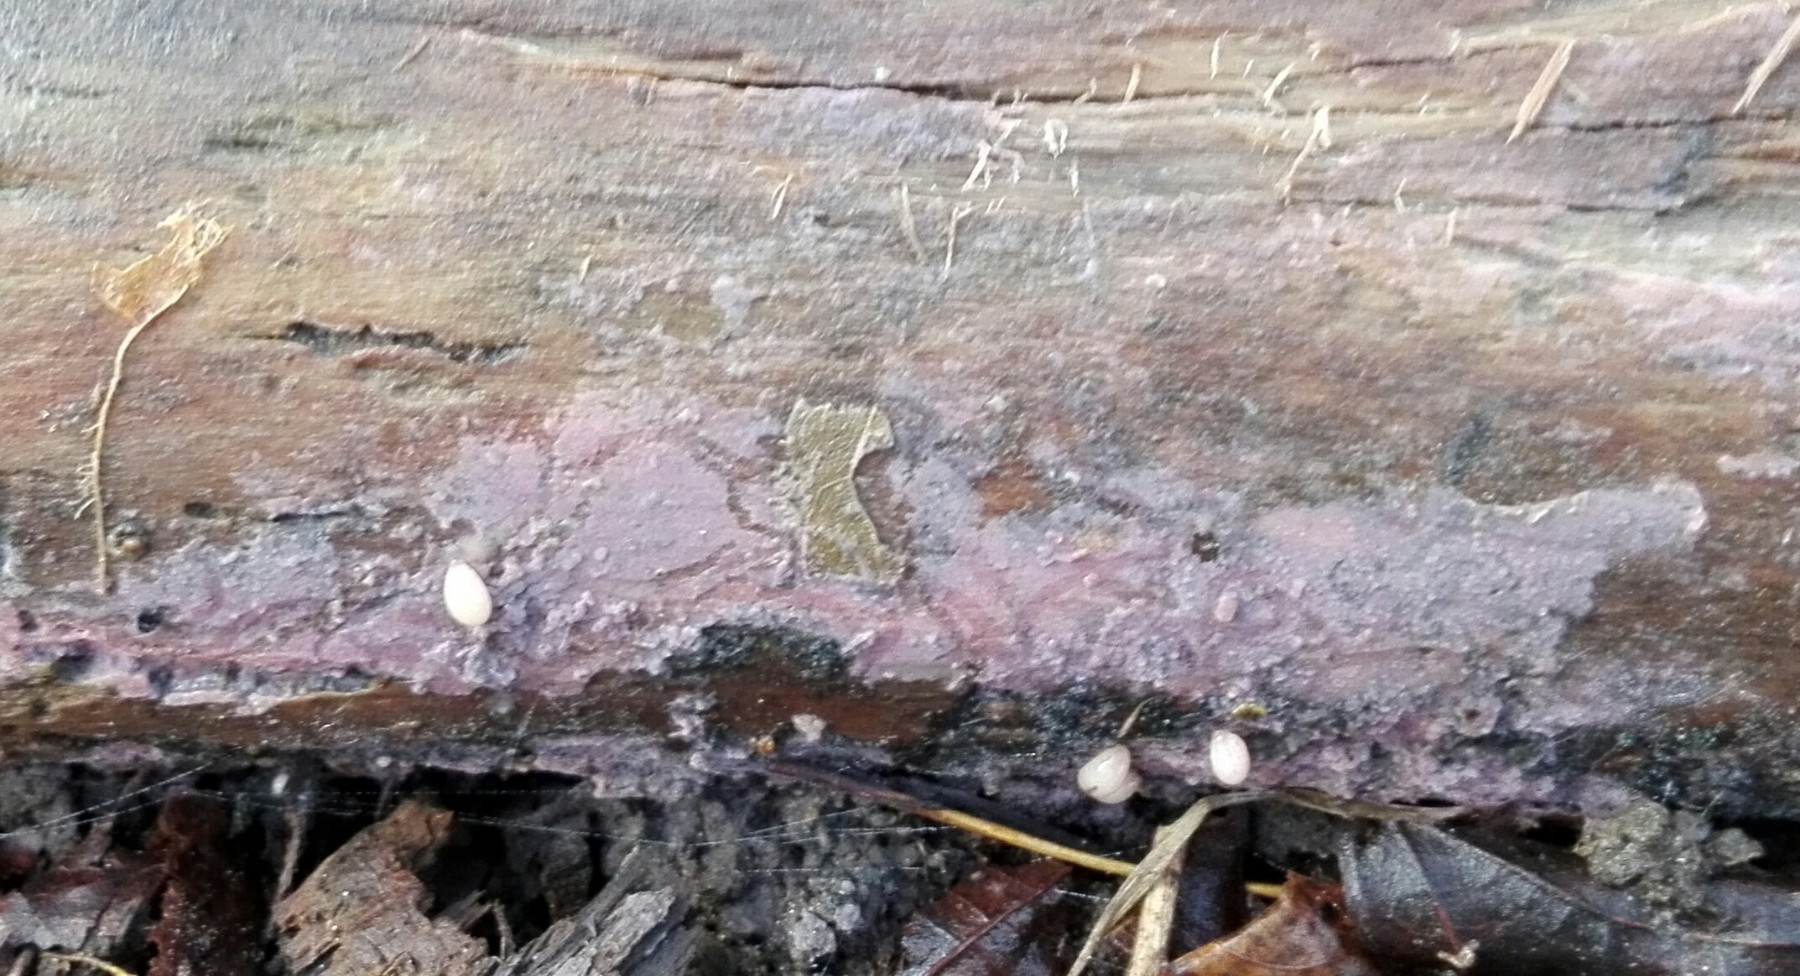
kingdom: Fungi
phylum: Basidiomycota
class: Agaricomycetes
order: Cantharellales
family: Tulasnellaceae
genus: Tulasnella
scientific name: Tulasnella violea
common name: violet ballonhinde
